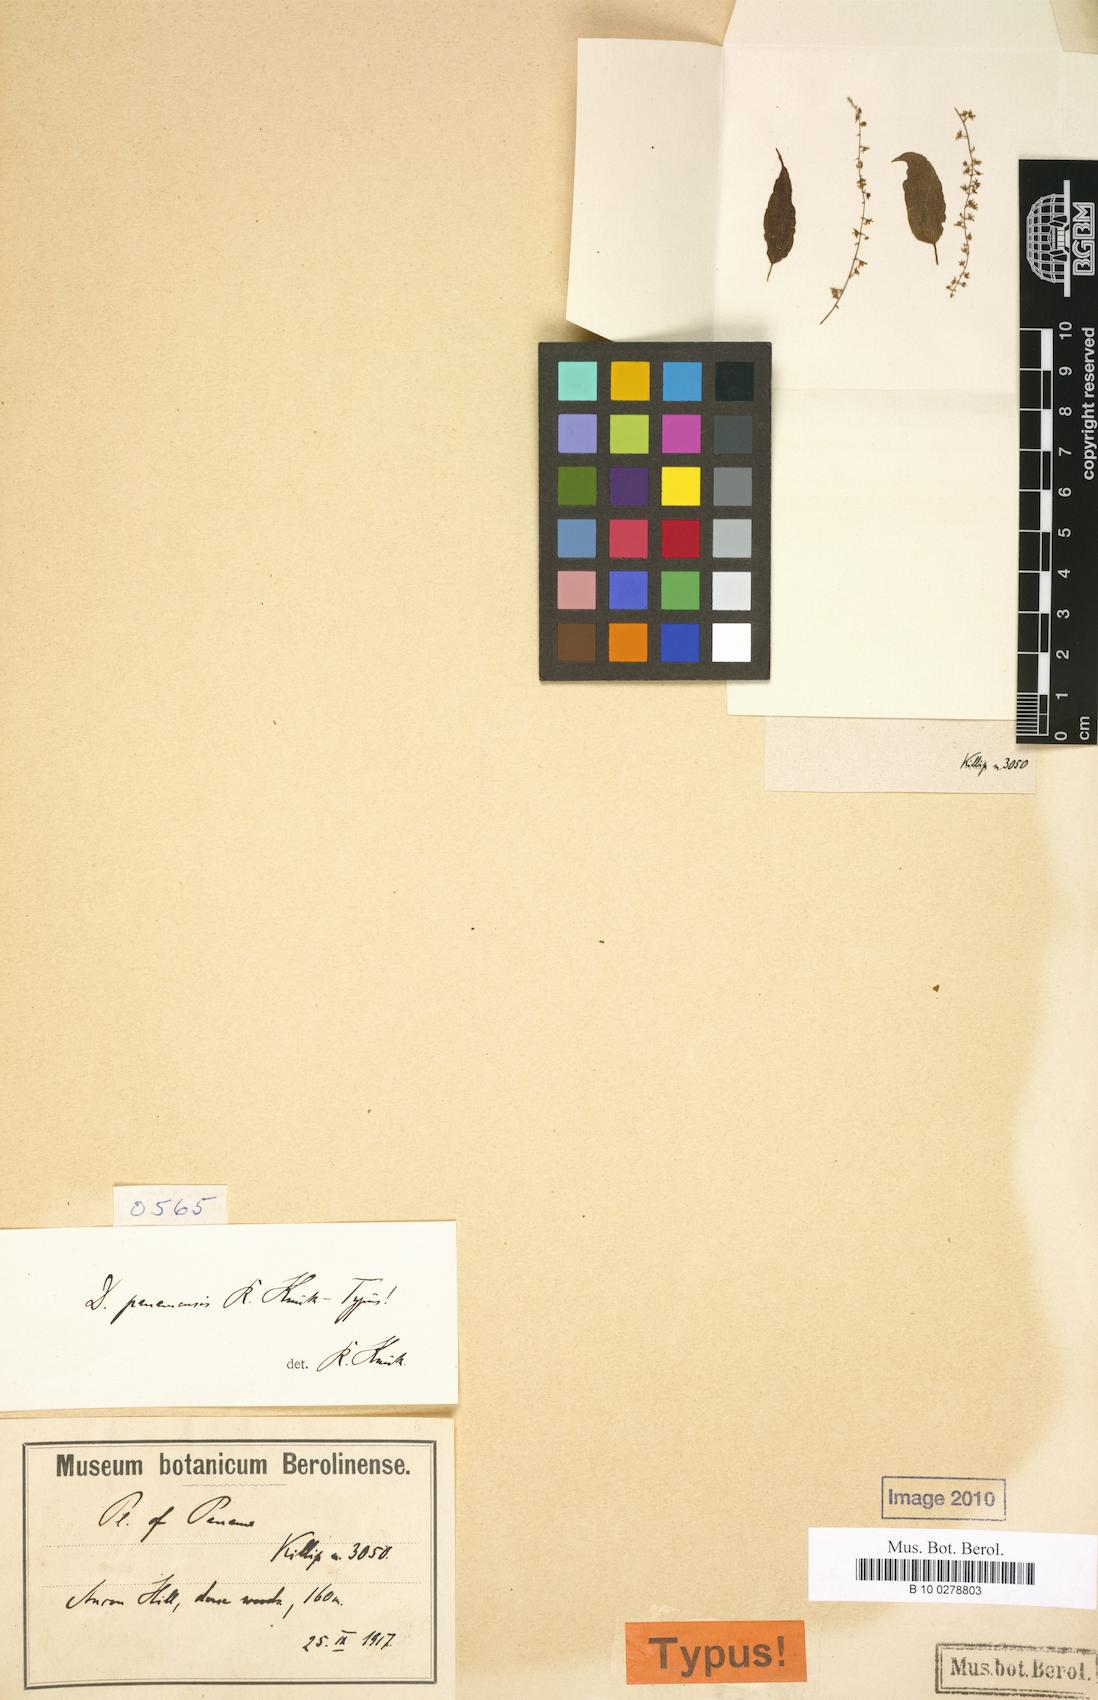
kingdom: Plantae
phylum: Tracheophyta
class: Liliopsida
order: Dioscoreales
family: Dioscoreaceae
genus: Dioscorea
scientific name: Dioscorea panamensis
